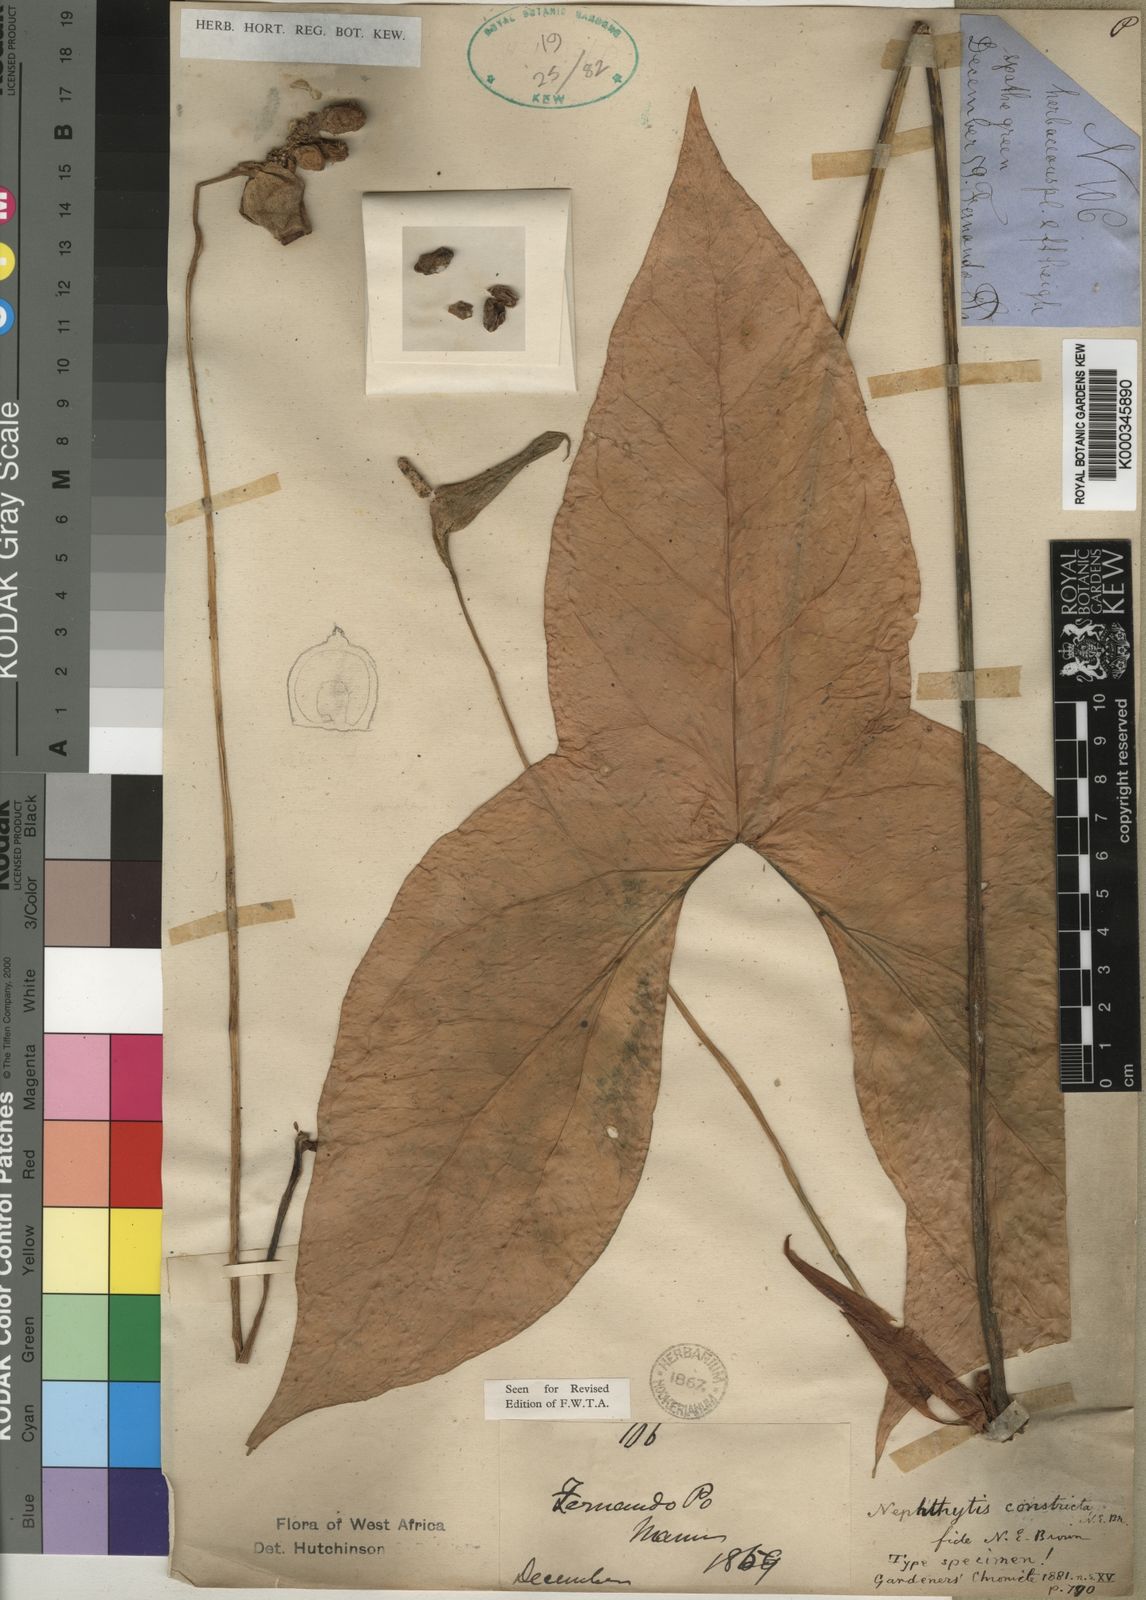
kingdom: Plantae
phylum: Tracheophyta
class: Liliopsida
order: Alismatales
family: Araceae
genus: Nephthytis
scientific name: Nephthytis poissonii
